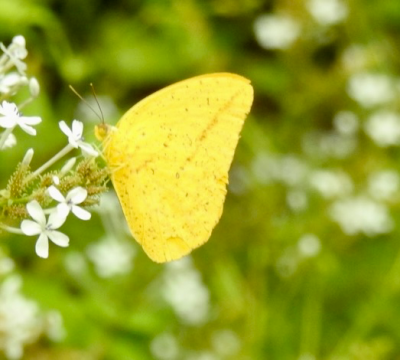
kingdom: Animalia
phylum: Arthropoda
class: Insecta
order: Lepidoptera
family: Pieridae
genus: Phoebis
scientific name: Phoebis agarithe
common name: Large Orange Sulphur
